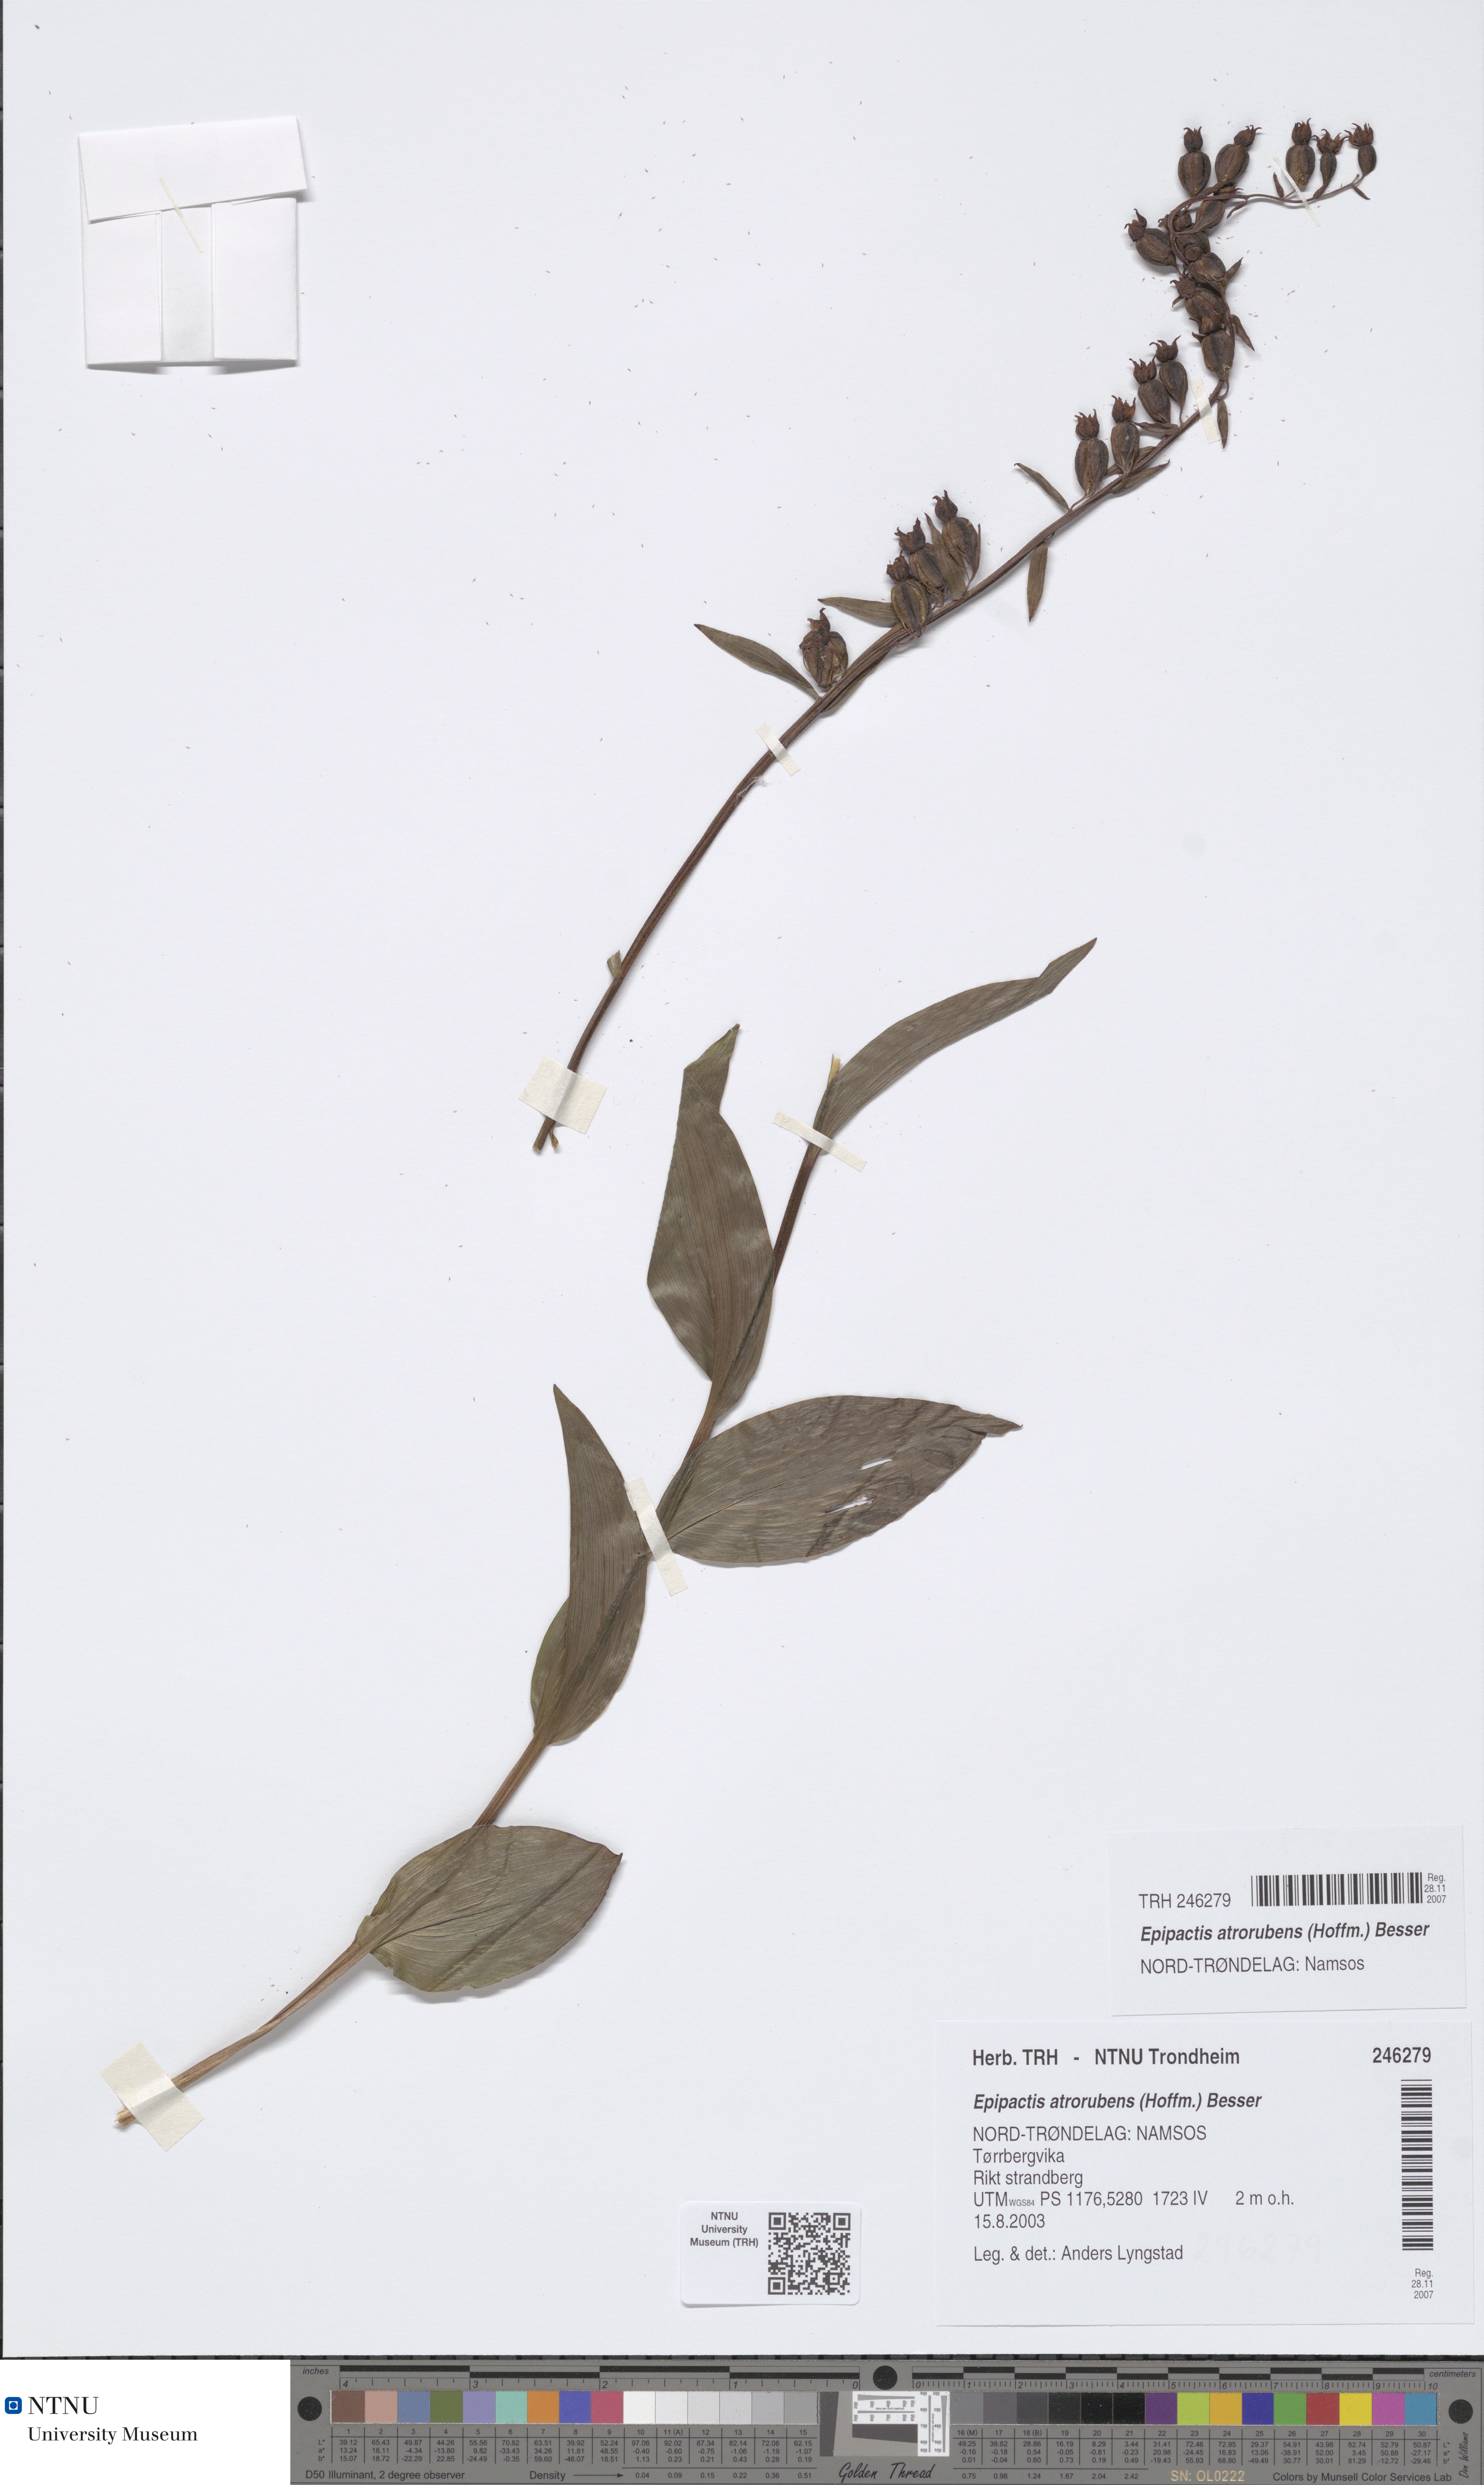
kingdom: Plantae
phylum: Tracheophyta
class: Liliopsida
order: Asparagales
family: Orchidaceae
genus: Epipactis
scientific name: Epipactis atrorubens
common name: Dark-red helleborine
